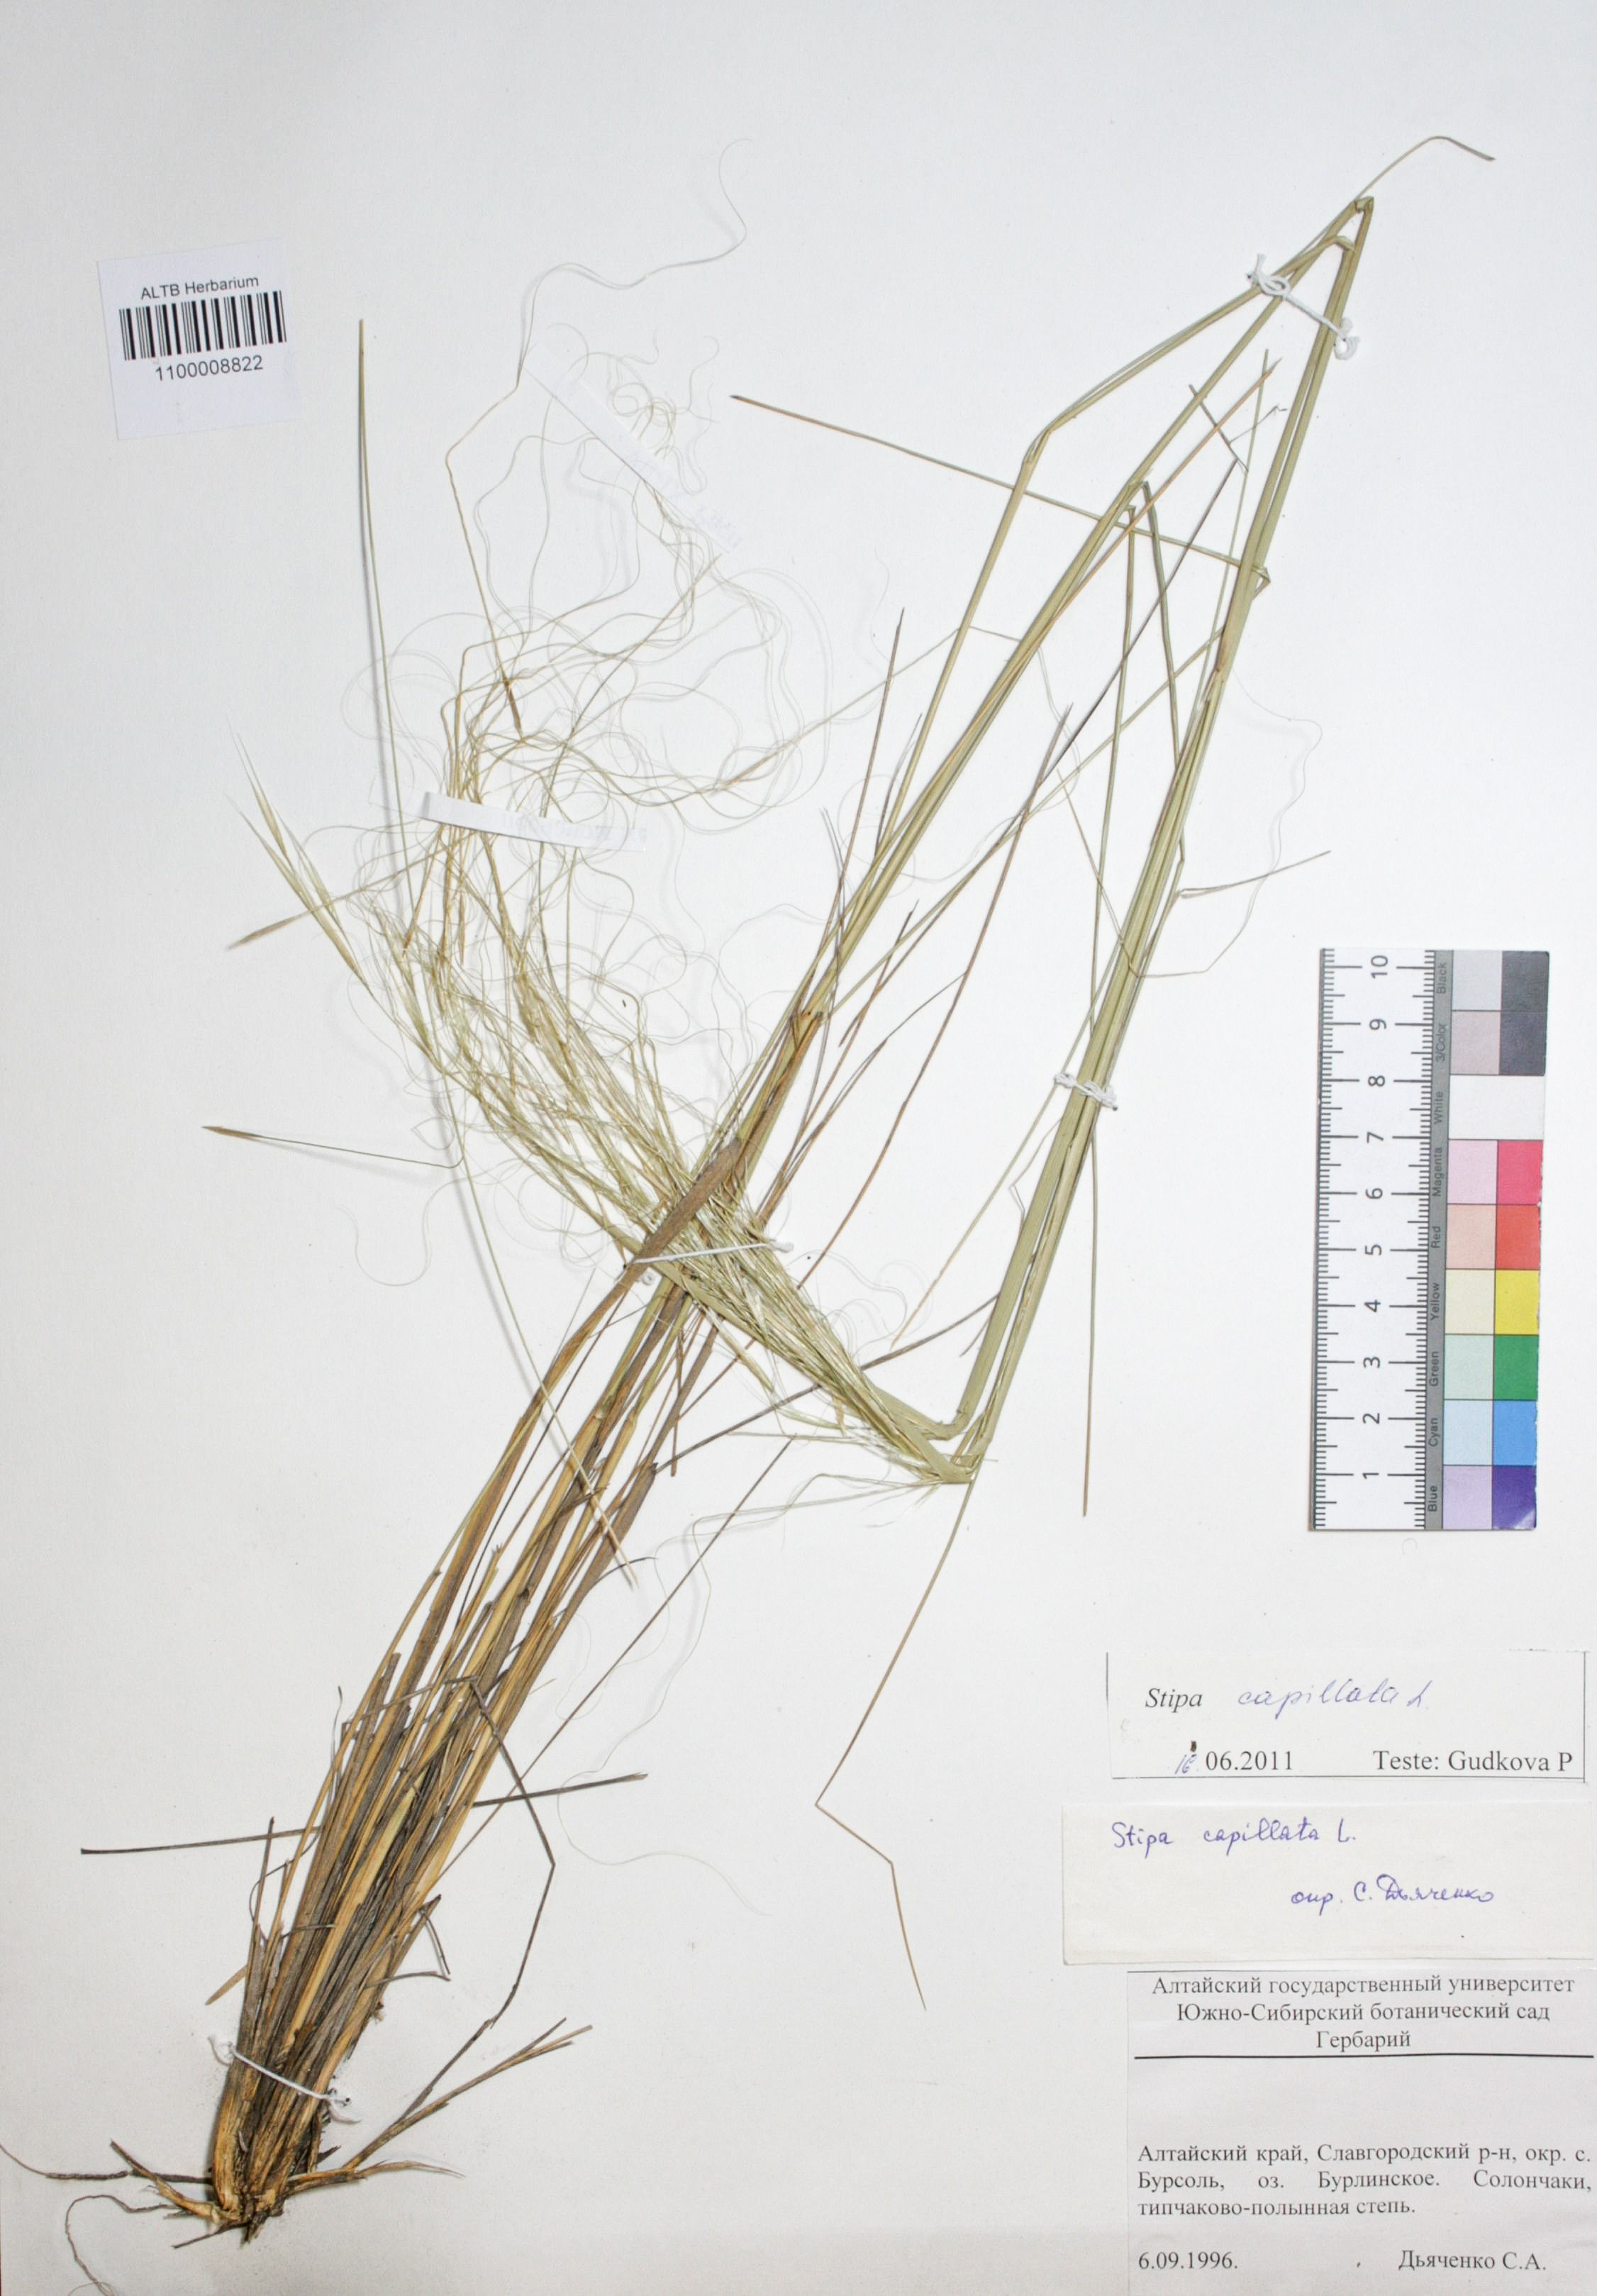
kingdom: Plantae
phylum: Tracheophyta
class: Liliopsida
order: Poales
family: Poaceae
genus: Stipa
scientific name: Stipa capillata
